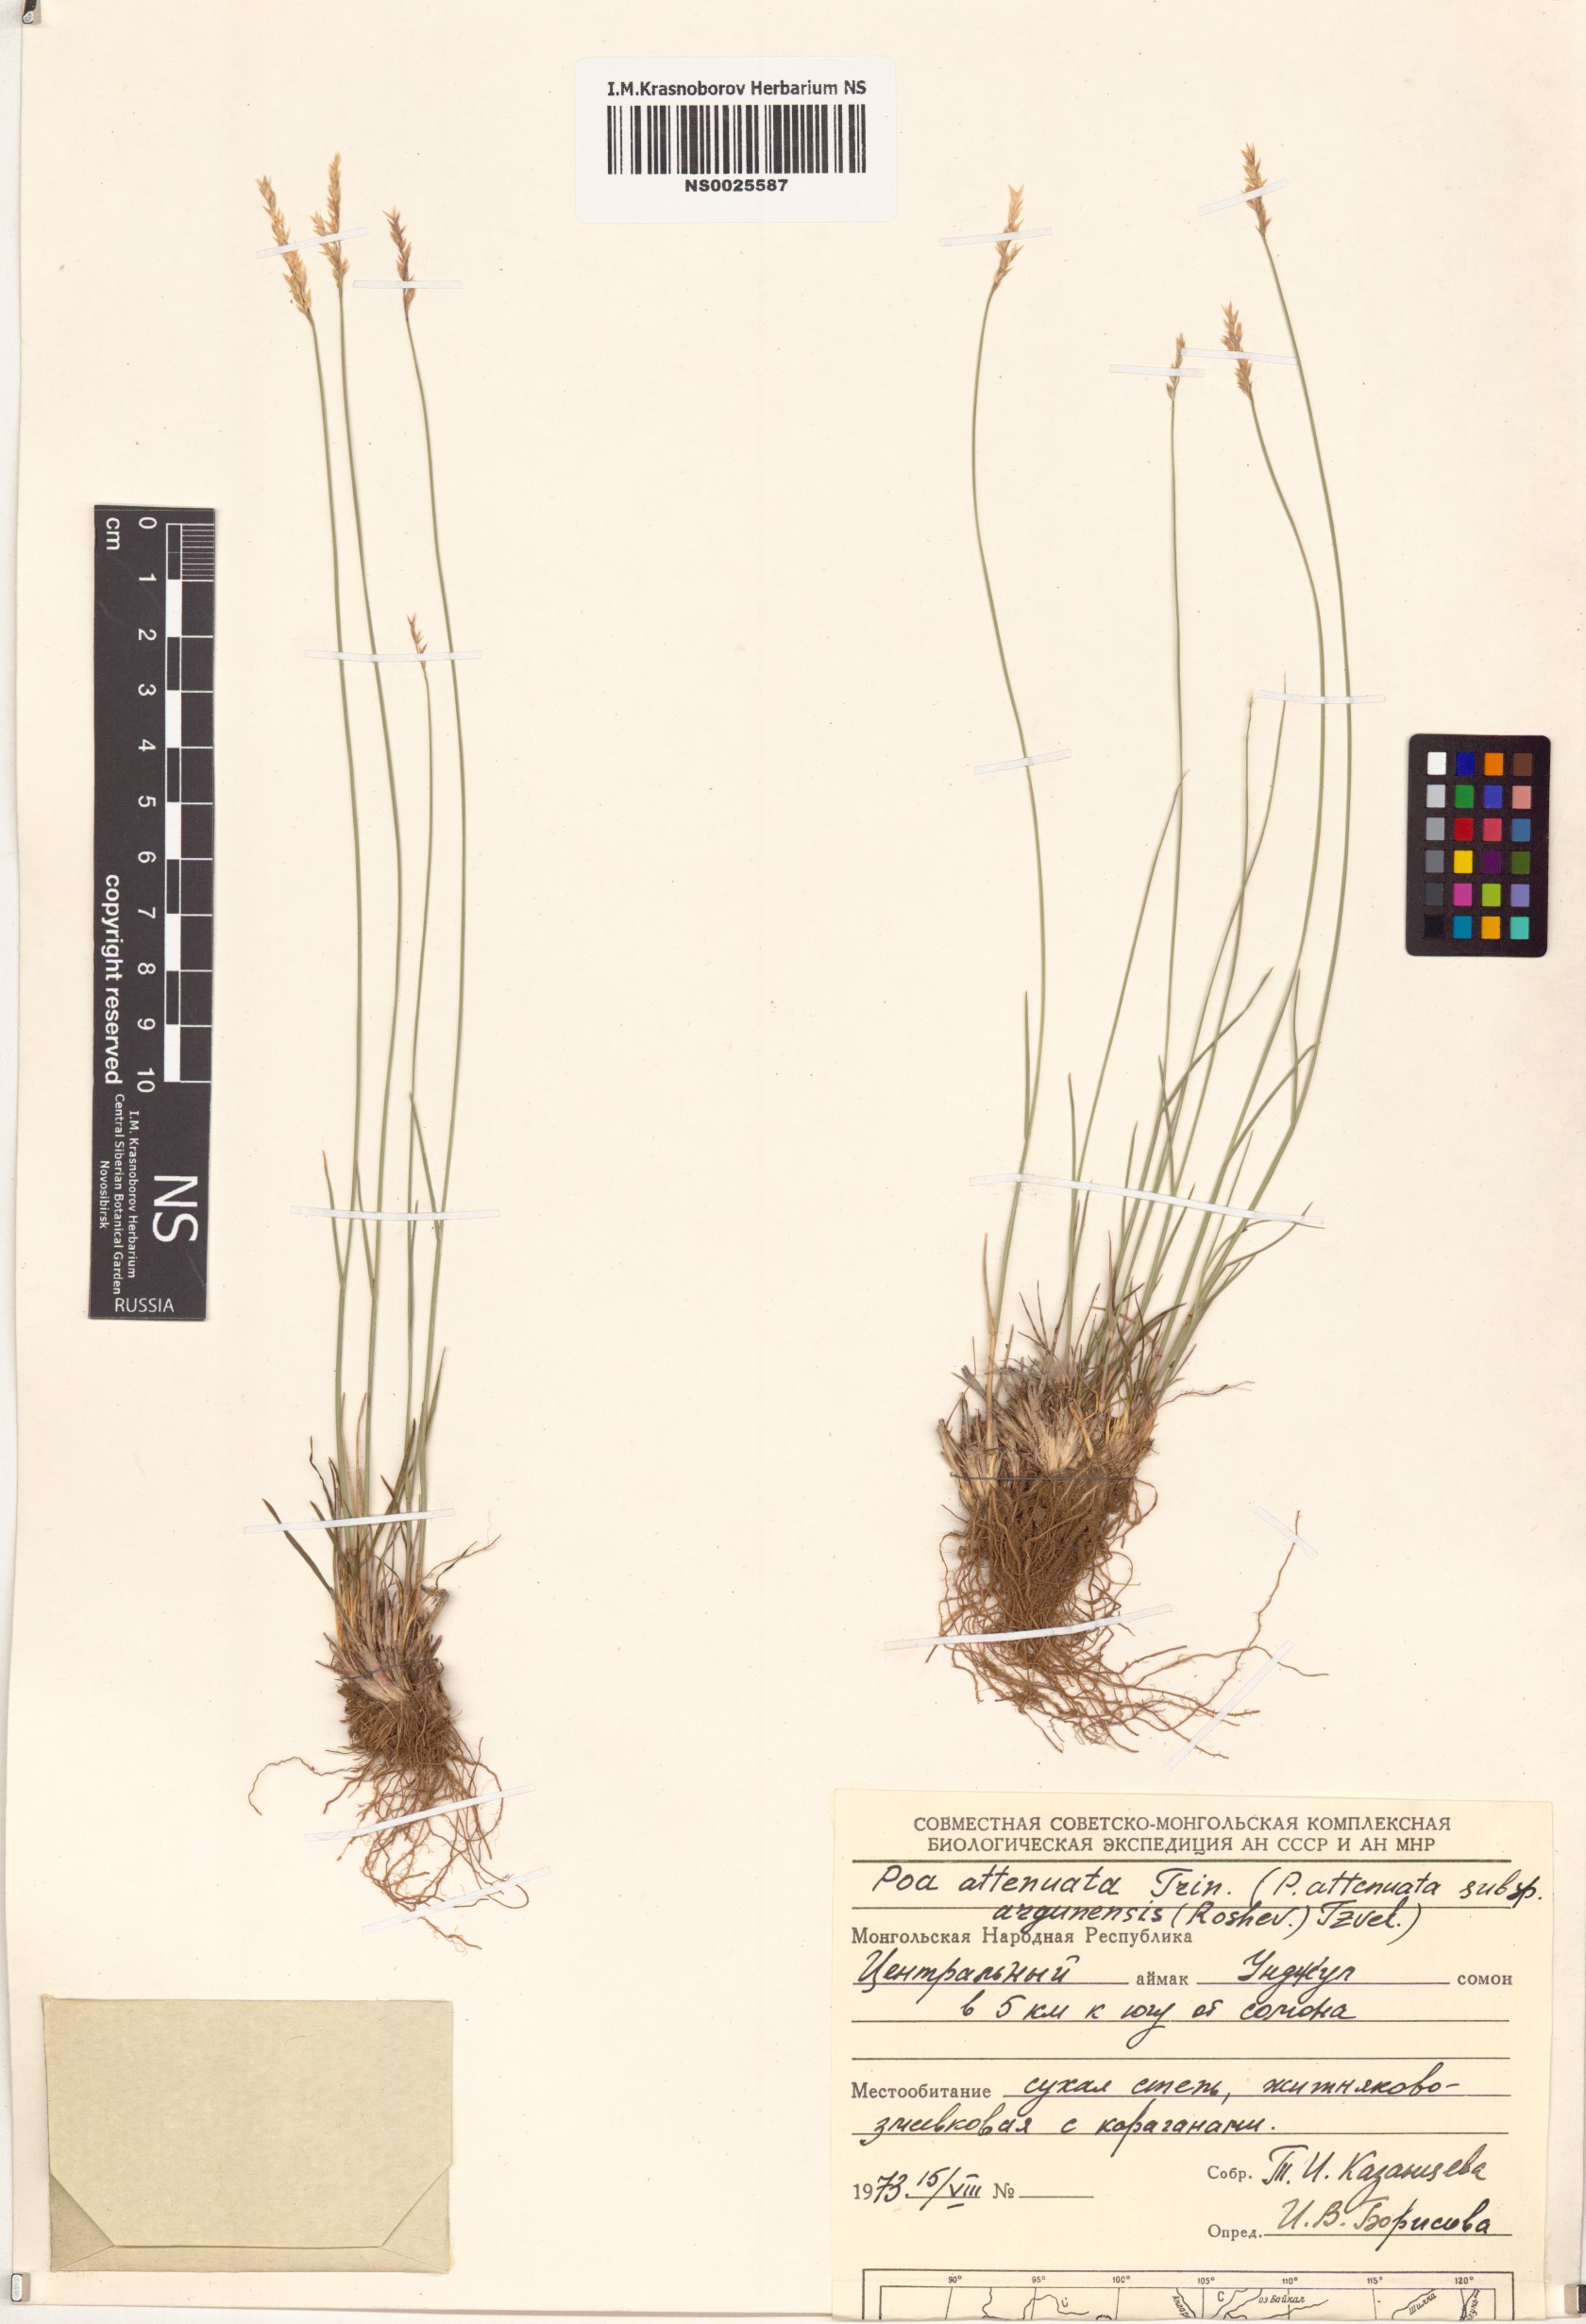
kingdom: Plantae
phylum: Tracheophyta
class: Liliopsida
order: Poales
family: Poaceae
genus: Poa
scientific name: Poa attenuata
